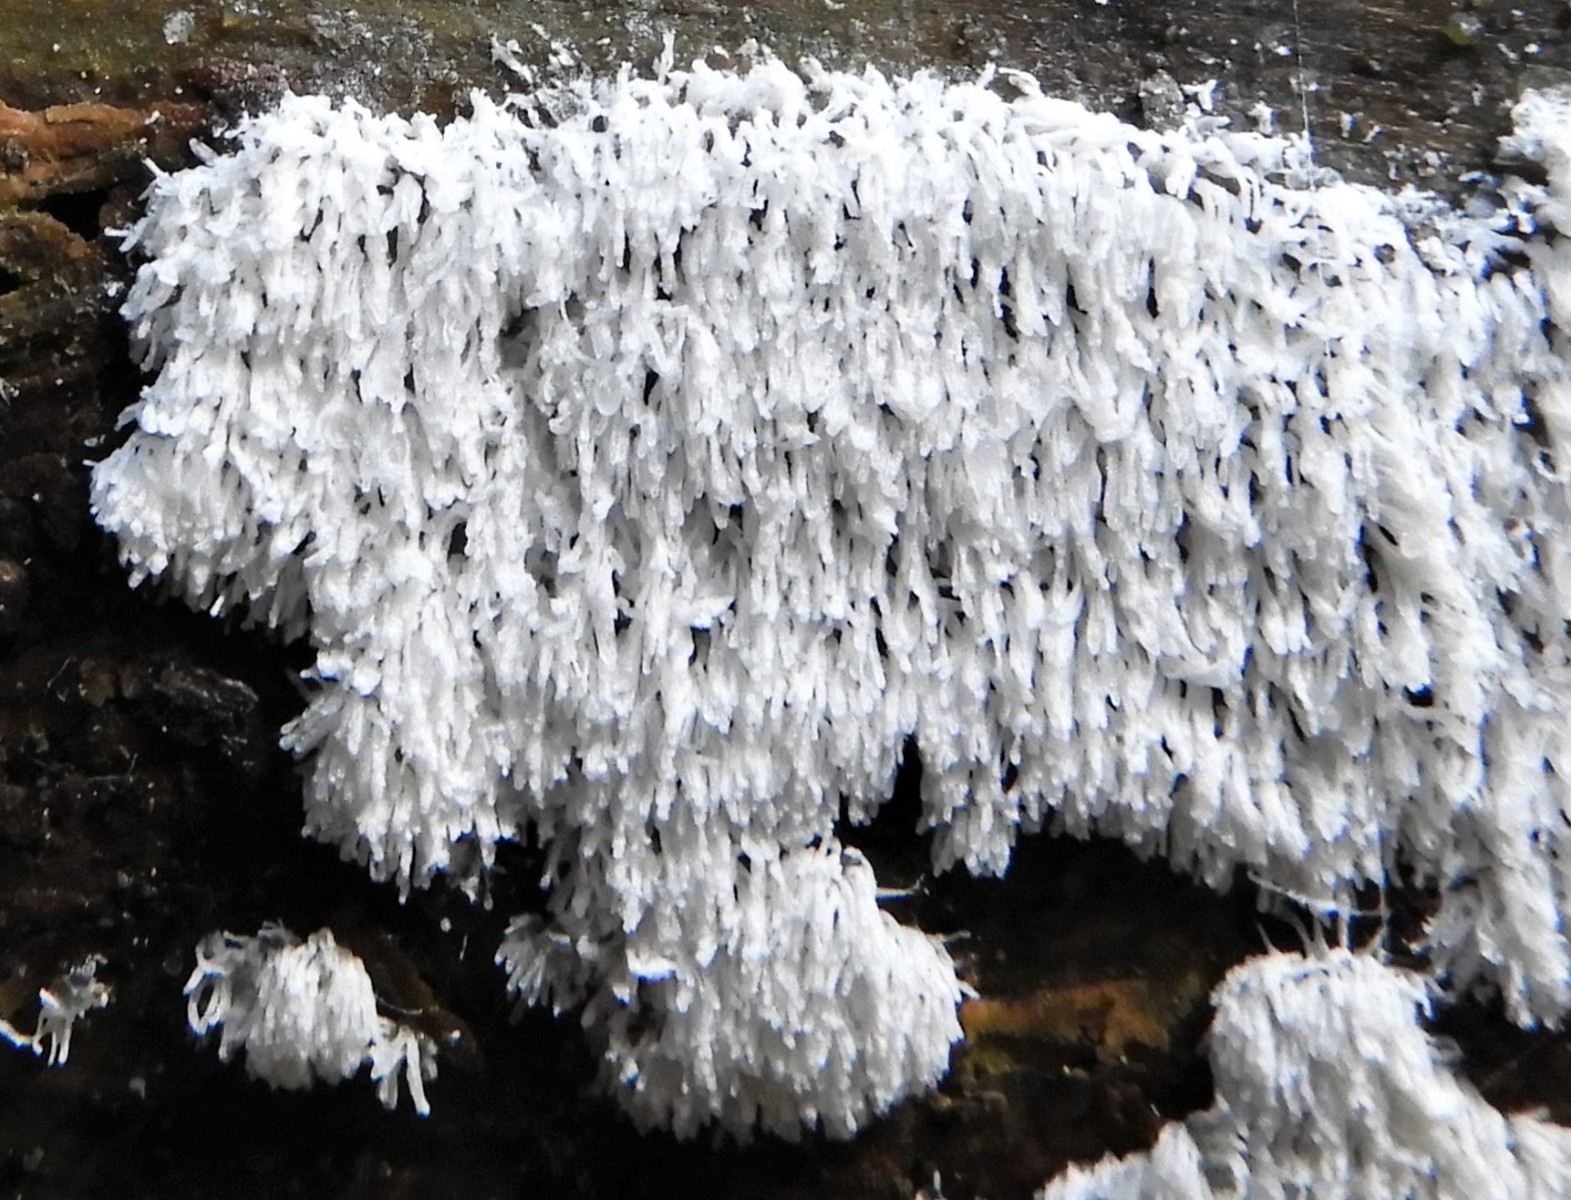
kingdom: Protozoa
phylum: Mycetozoa
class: Protosteliomycetes
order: Ceratiomyxales
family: Ceratiomyxaceae
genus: Ceratiomyxa
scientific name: Ceratiomyxa fruticulosa
